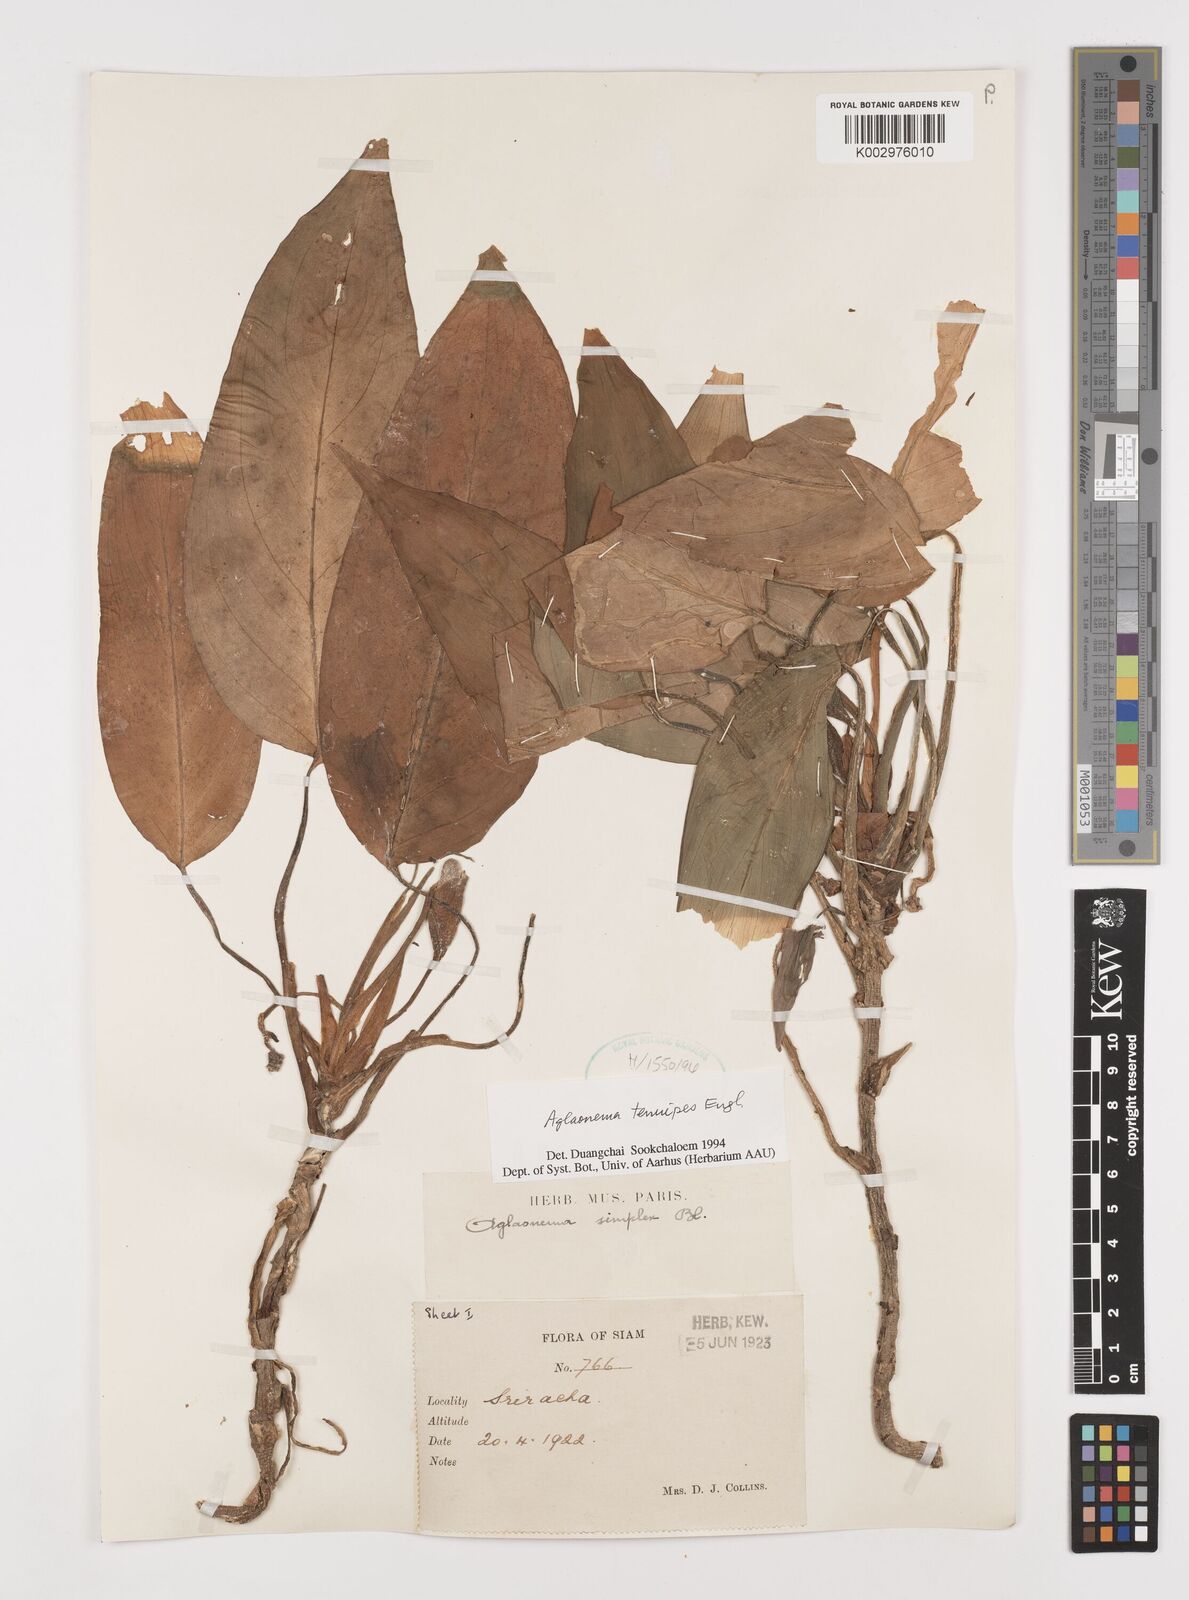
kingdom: Plantae
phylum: Tracheophyta
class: Liliopsida
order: Alismatales
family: Araceae
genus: Aglaonema
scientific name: Aglaonema simplex
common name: Malayan-sword
